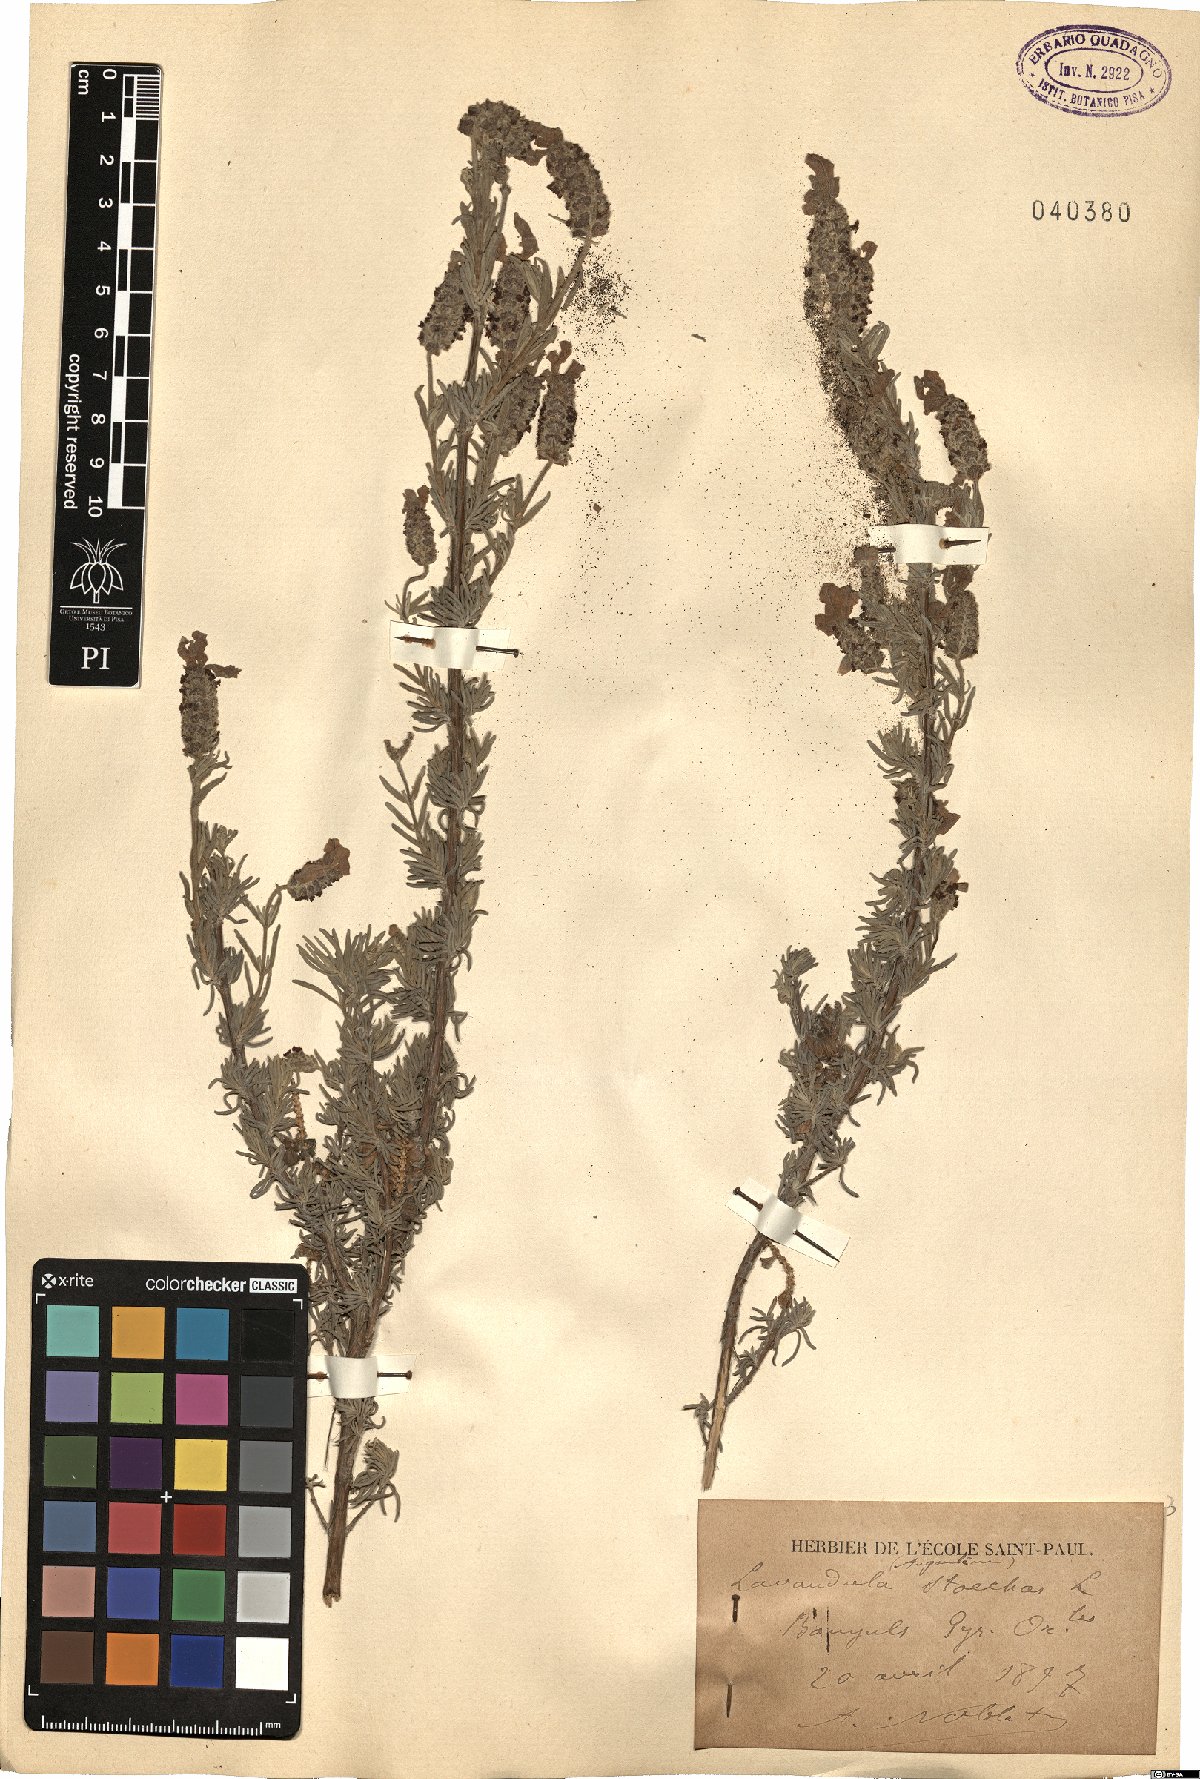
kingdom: Plantae
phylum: Tracheophyta
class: Magnoliopsida
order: Lamiales
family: Lamiaceae
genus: Lavandula
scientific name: Lavandula stoechas
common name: French lavender
